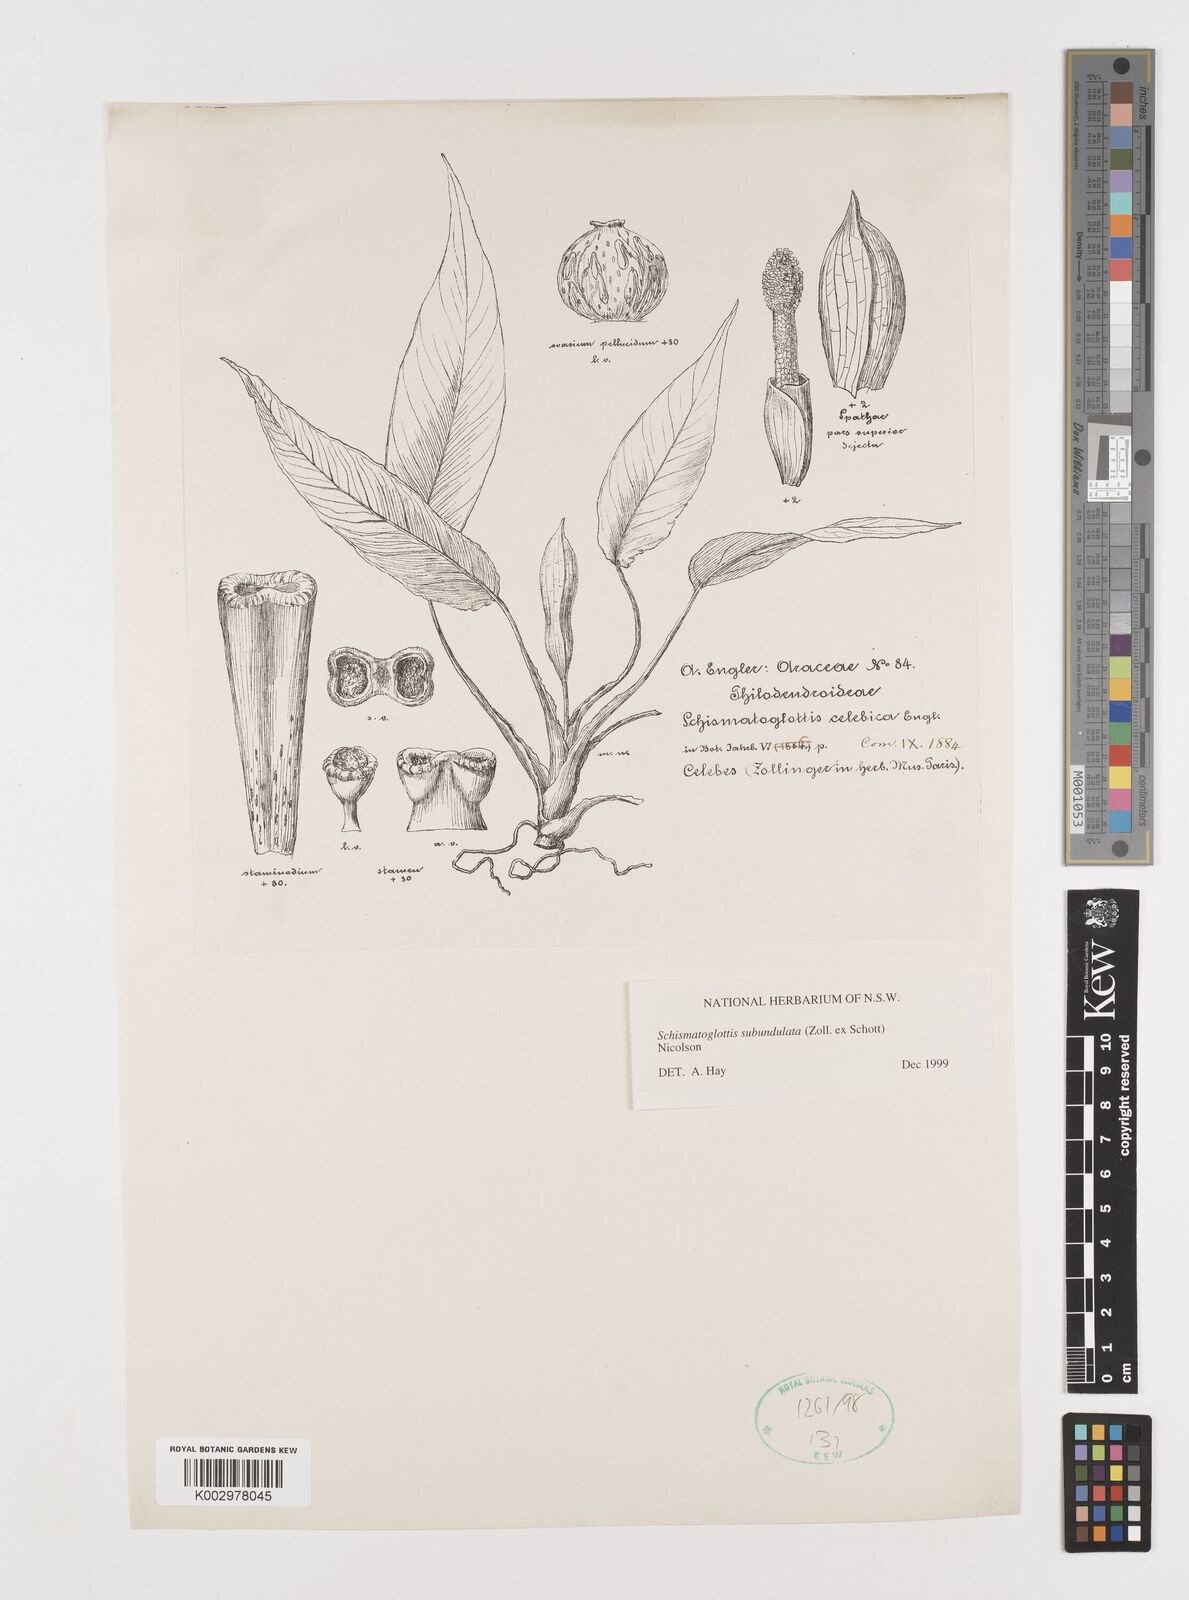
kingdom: Plantae
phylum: Tracheophyta
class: Liliopsida
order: Alismatales
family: Araceae
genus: Schismatoglottis
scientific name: Schismatoglottis subundulata
